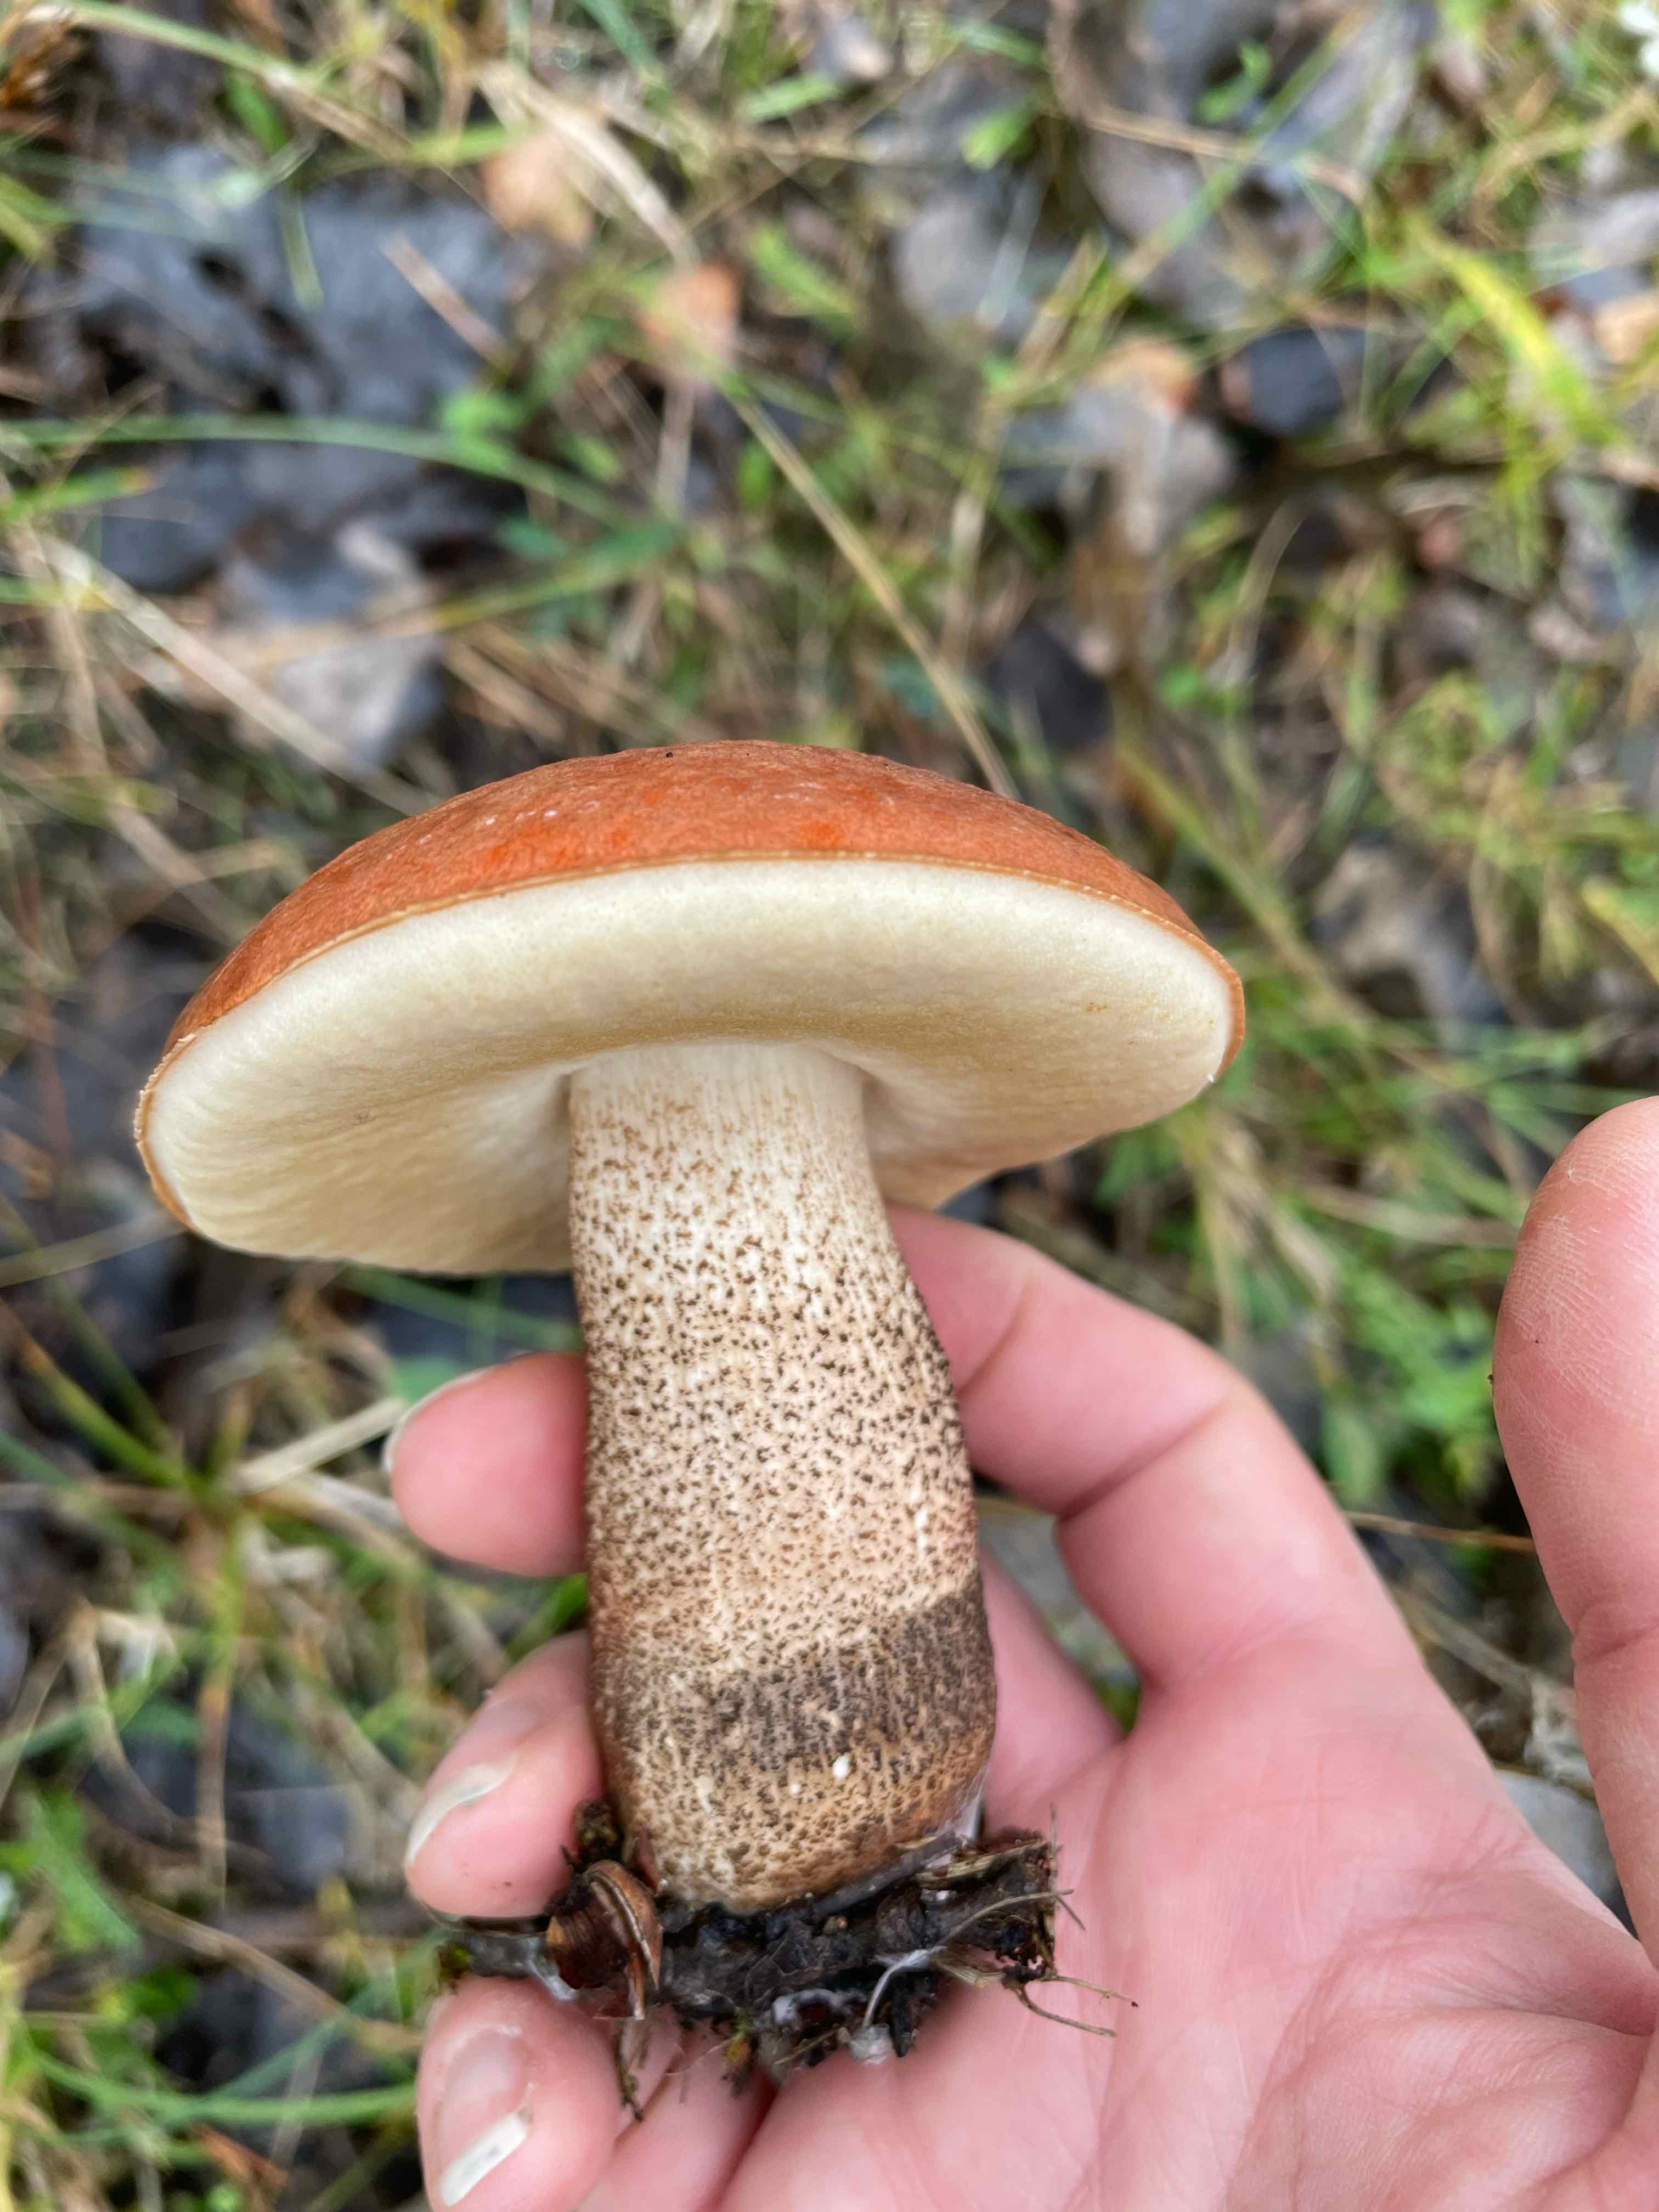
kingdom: Fungi
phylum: Basidiomycota
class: Agaricomycetes
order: Boletales
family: Boletaceae
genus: Leccinum
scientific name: Leccinum aurantiacum
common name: rustrød skælrørhat
